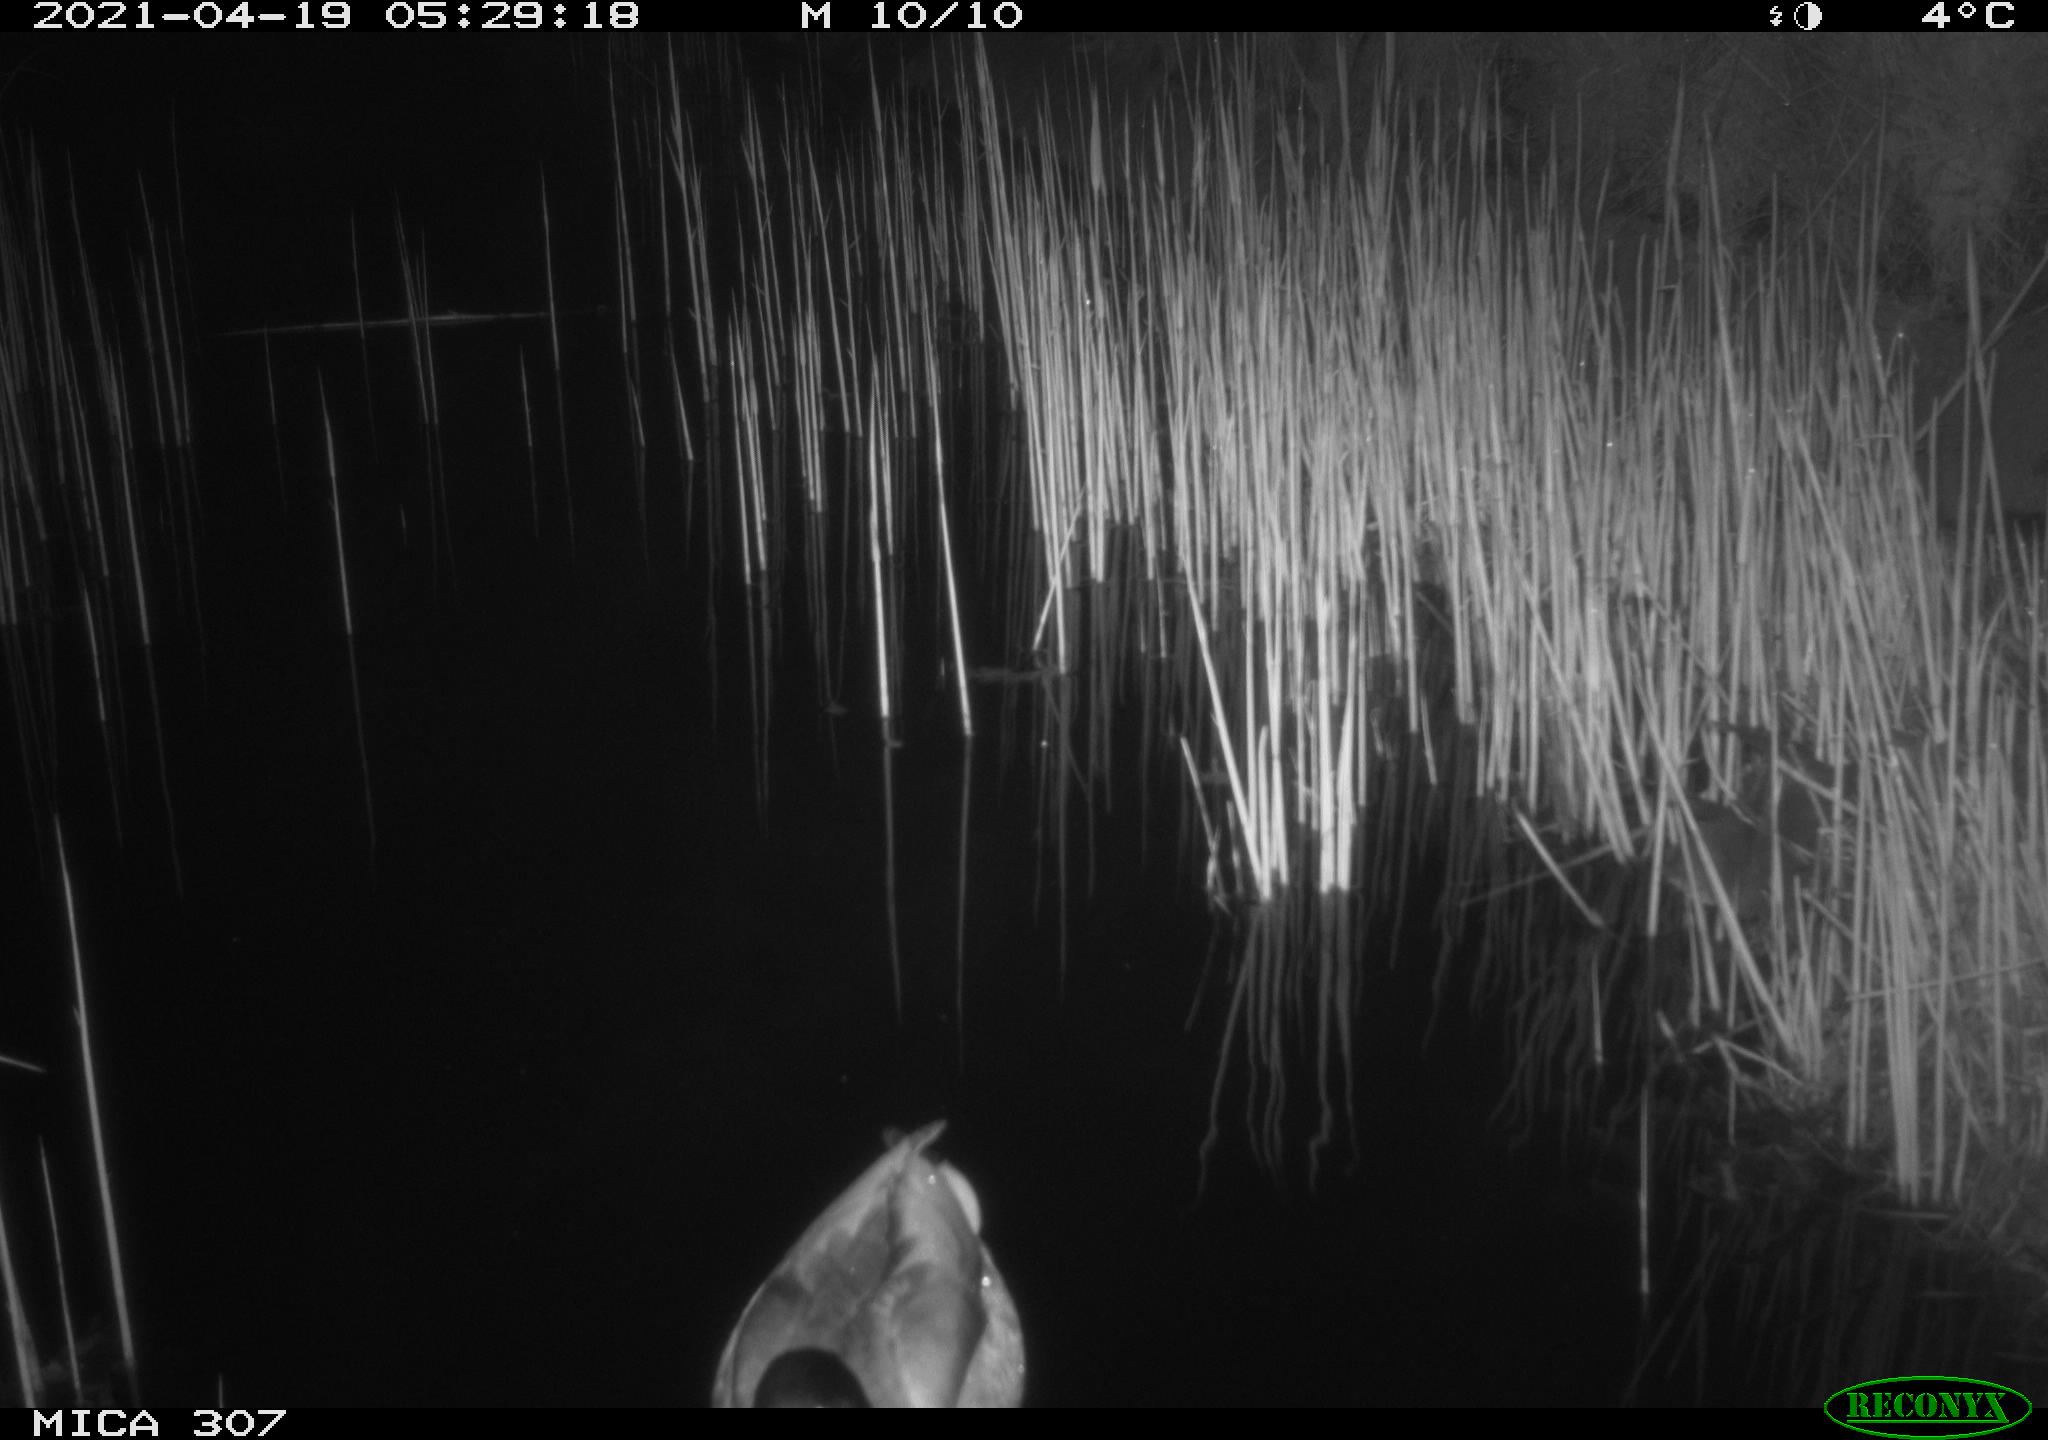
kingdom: Animalia
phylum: Chordata
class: Aves
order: Anseriformes
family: Anatidae
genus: Anas
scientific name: Anas platyrhynchos
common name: Mallard
